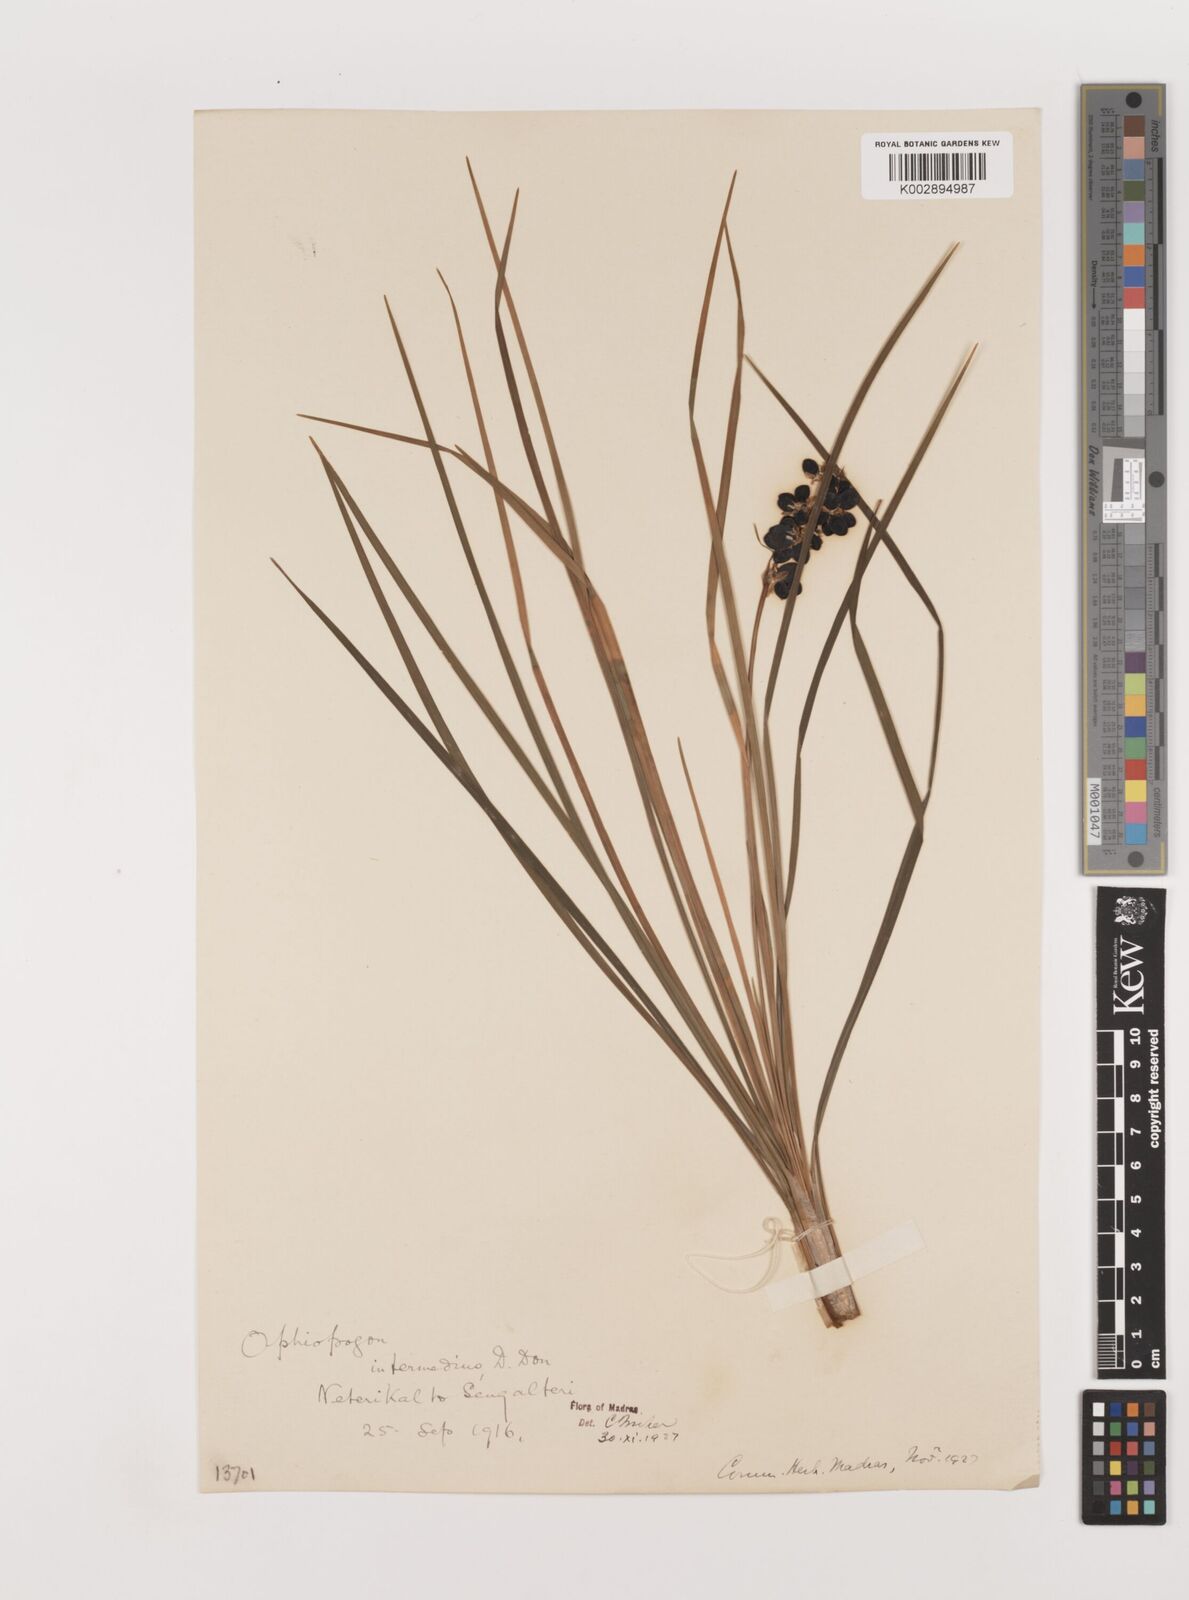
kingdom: Plantae
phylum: Tracheophyta
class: Liliopsida
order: Asparagales
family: Asparagaceae
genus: Ophiopogon
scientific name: Ophiopogon intermedius
